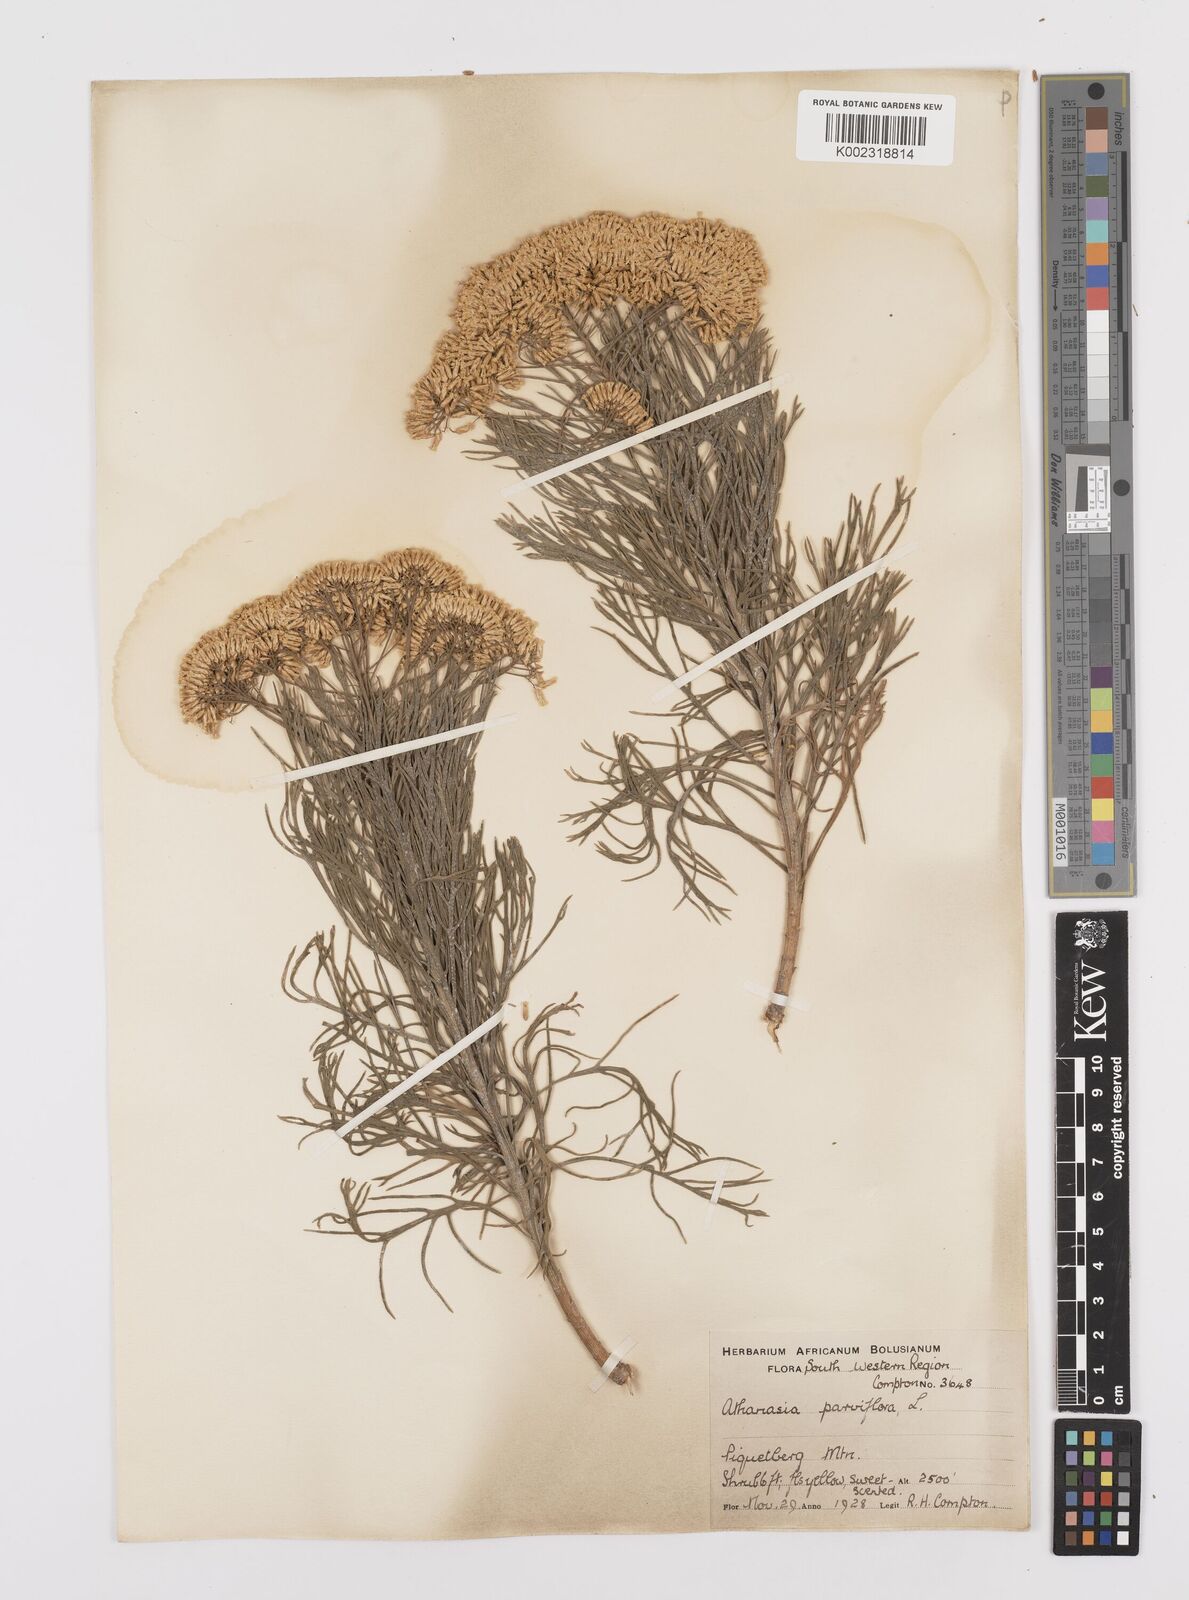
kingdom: Plantae
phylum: Tracheophyta
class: Magnoliopsida
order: Asterales
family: Asteraceae
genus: Hymenolepis
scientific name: Hymenolepis crithmifolia
